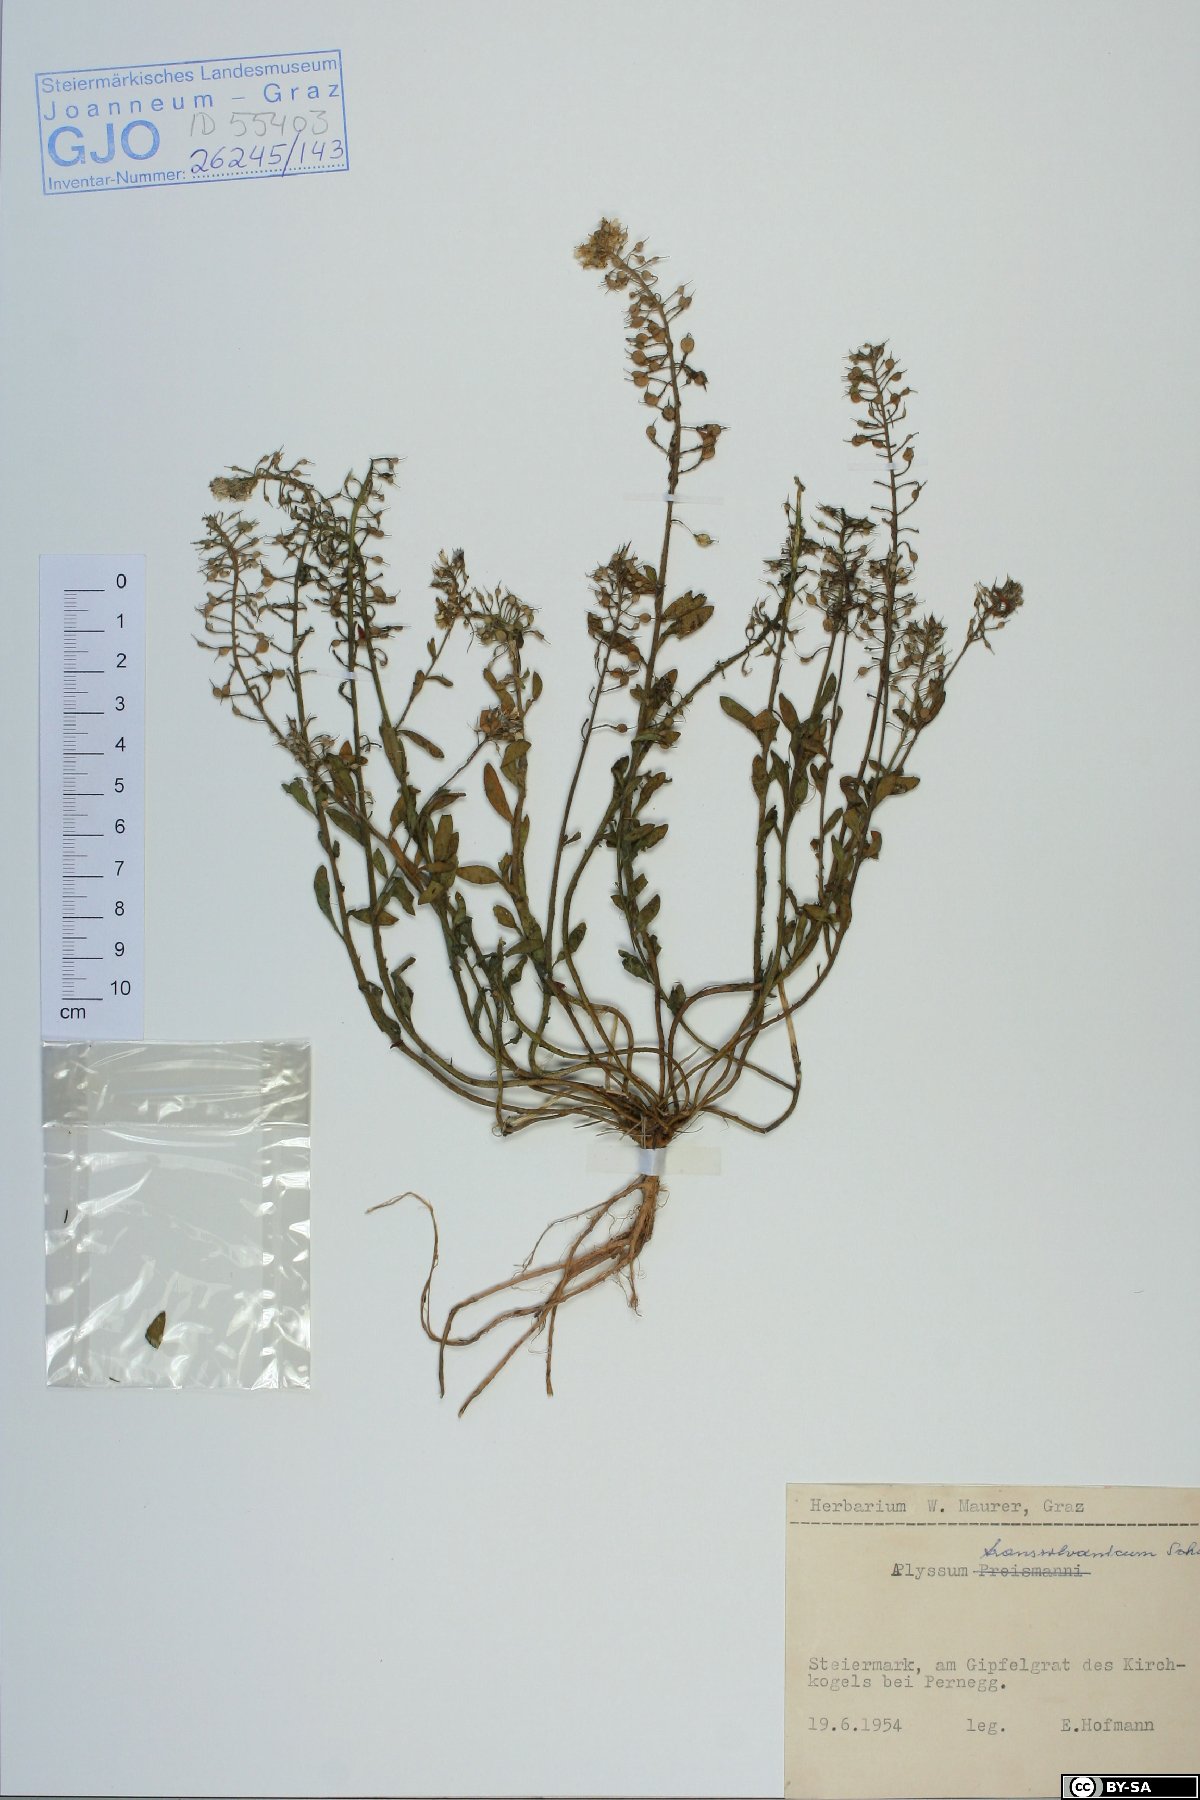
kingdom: Plantae
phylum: Tracheophyta
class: Magnoliopsida
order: Brassicales
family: Brassicaceae
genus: Alyssum
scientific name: Alyssum repens
